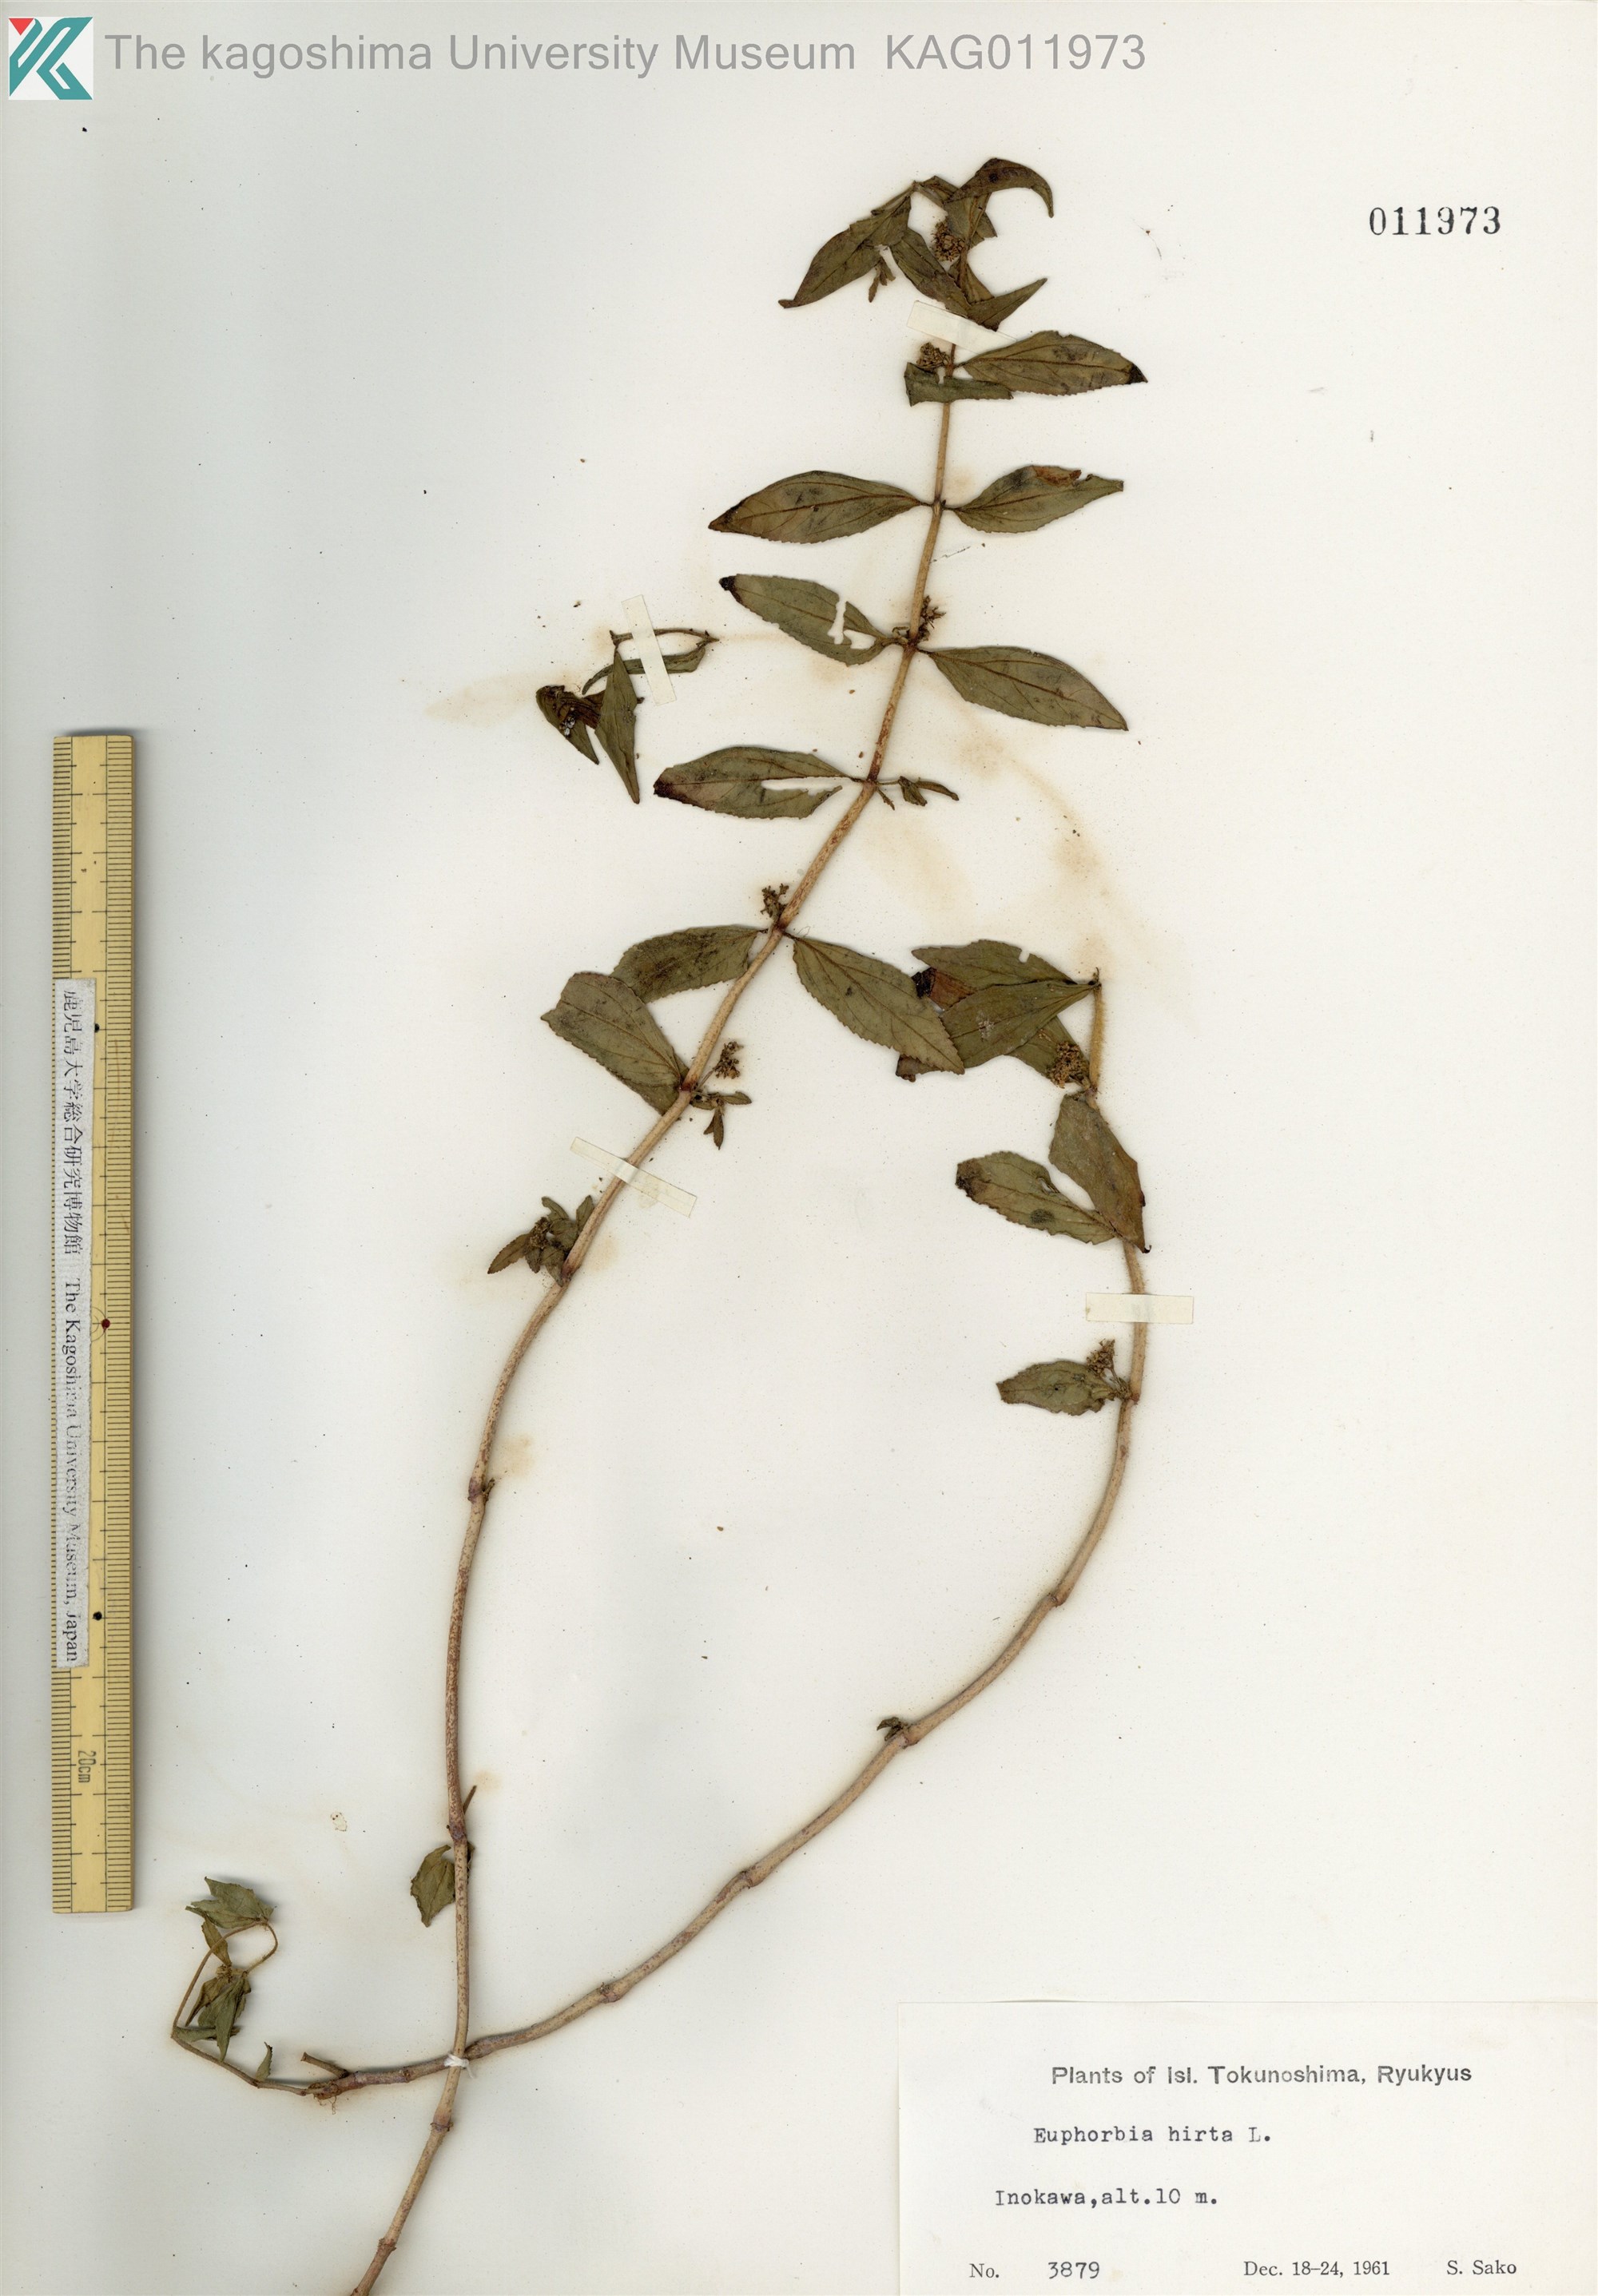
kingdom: Plantae
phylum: Tracheophyta
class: Magnoliopsida
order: Malpighiales
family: Euphorbiaceae
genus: Euphorbia
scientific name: Euphorbia hirta
